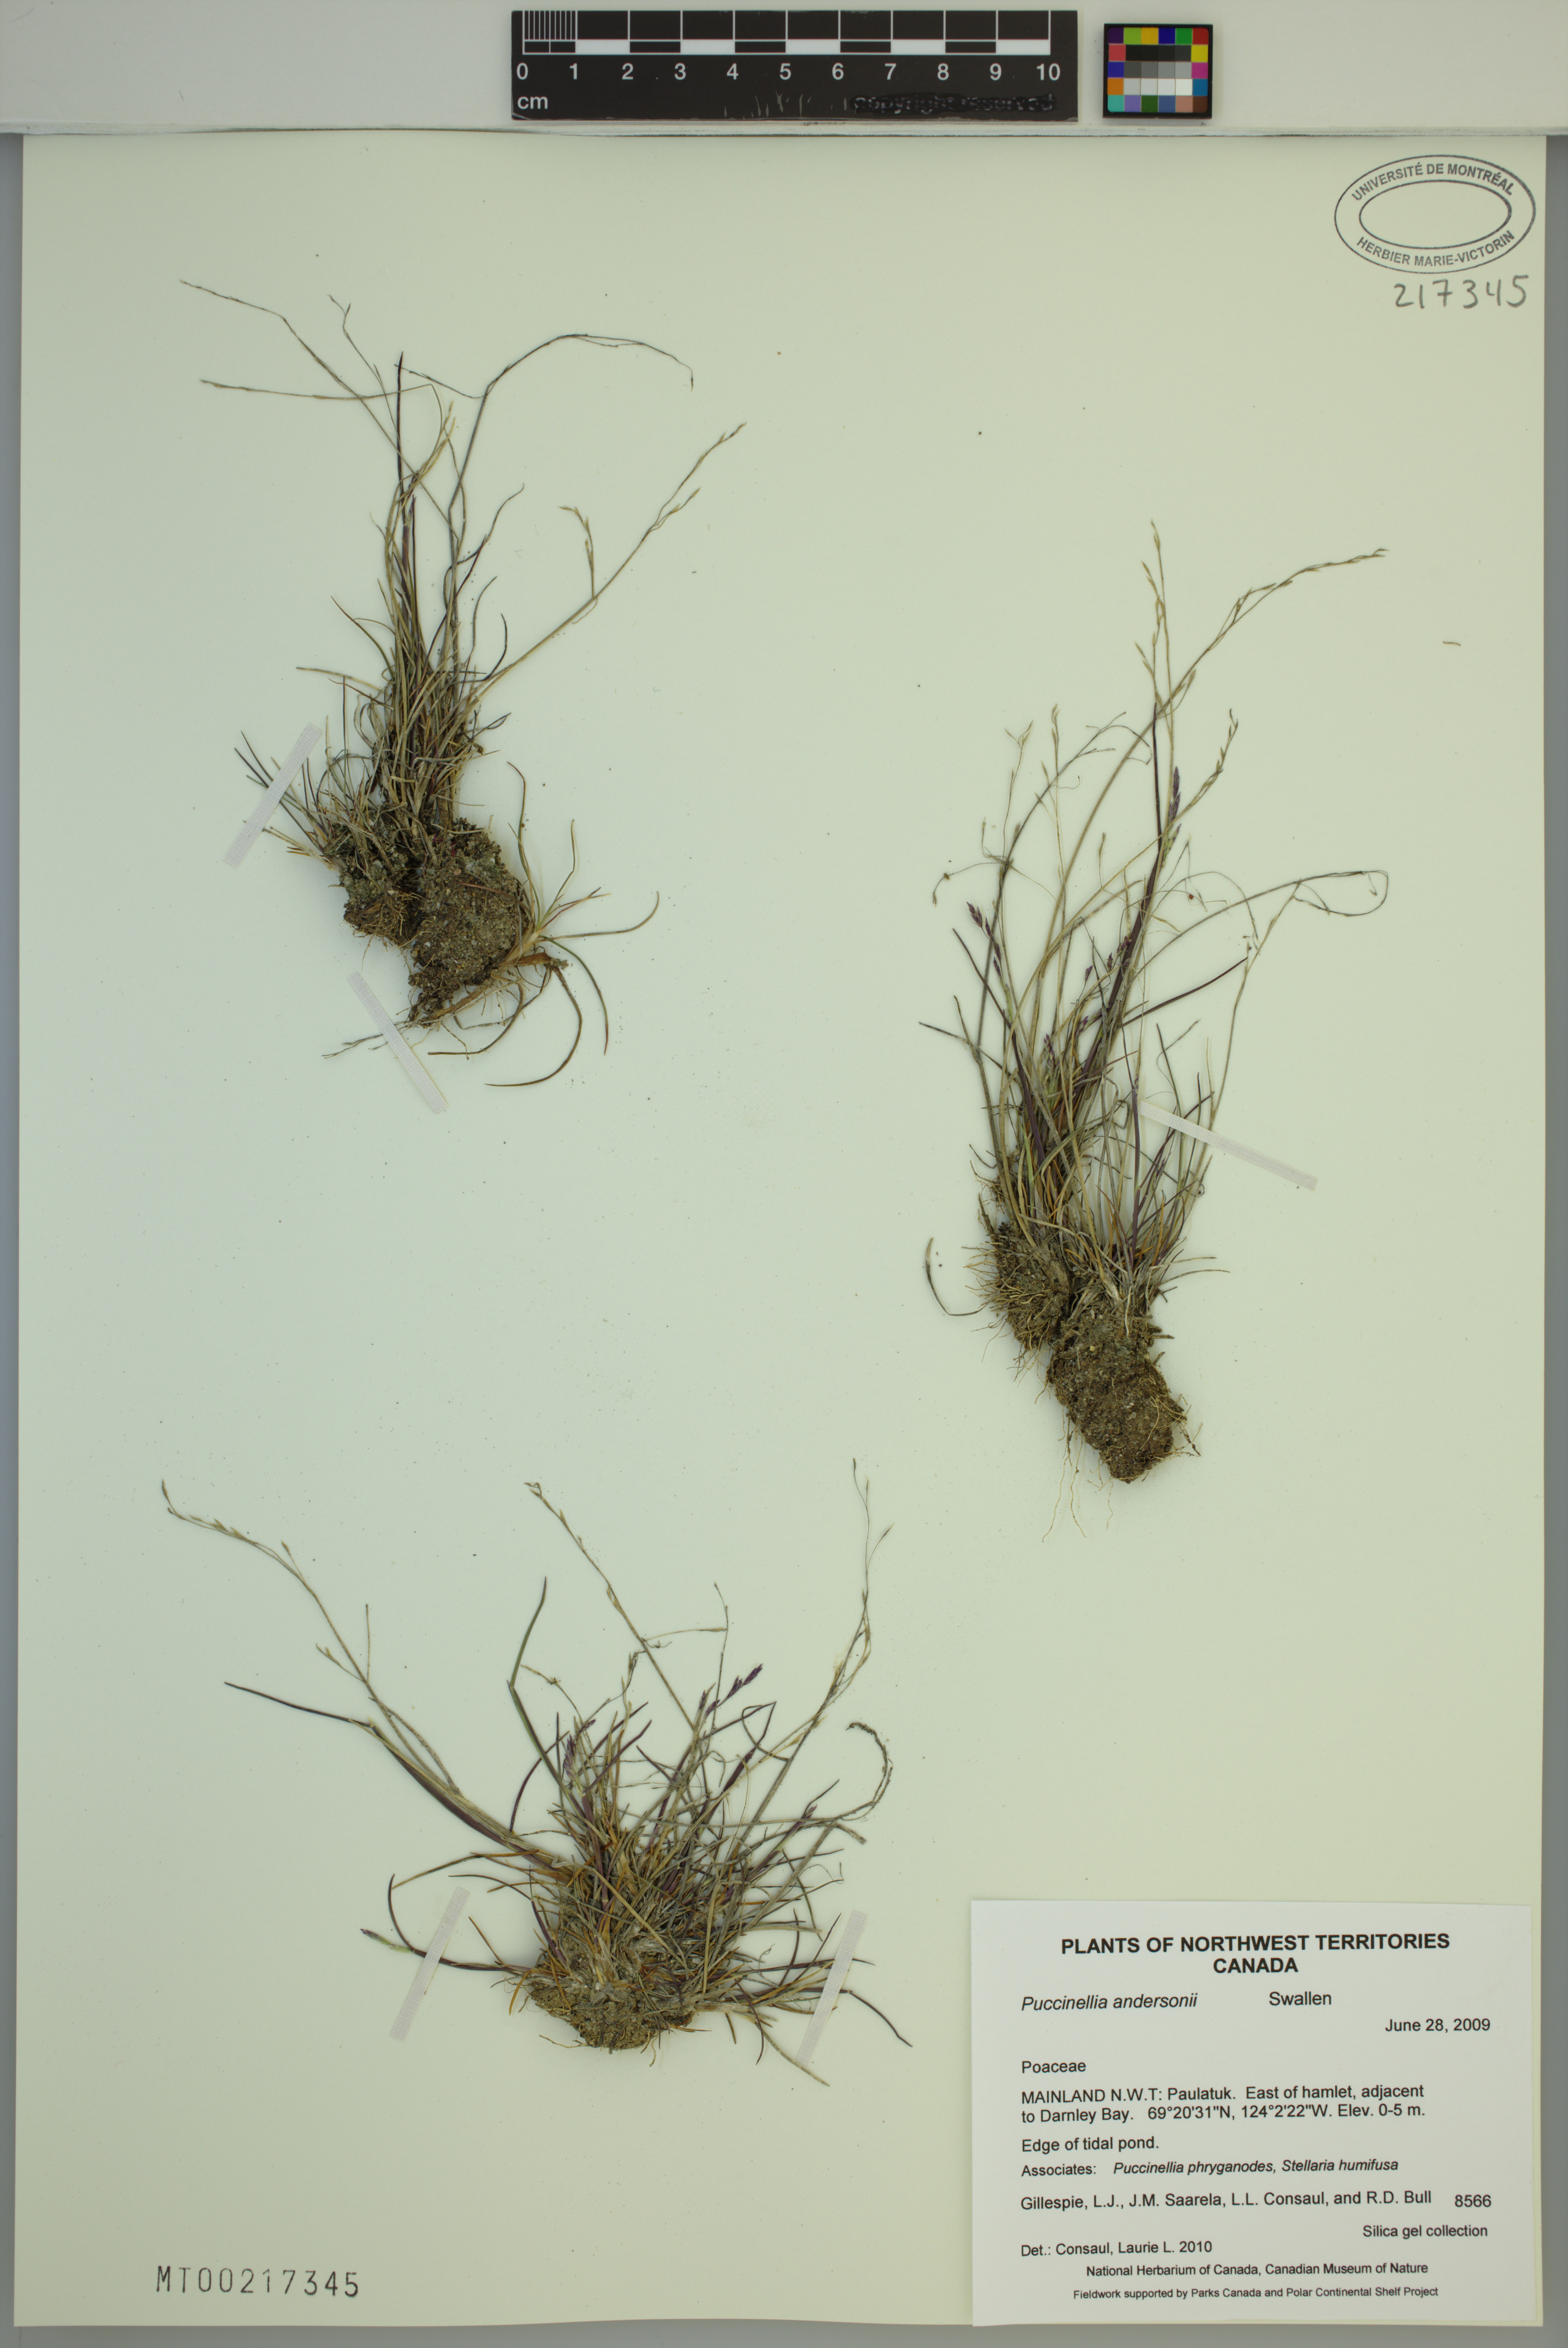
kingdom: Plantae
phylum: Tracheophyta
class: Liliopsida
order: Poales
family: Poaceae
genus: Puccinellia
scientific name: Puccinellia andersonii
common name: Anderson's alkali grass
